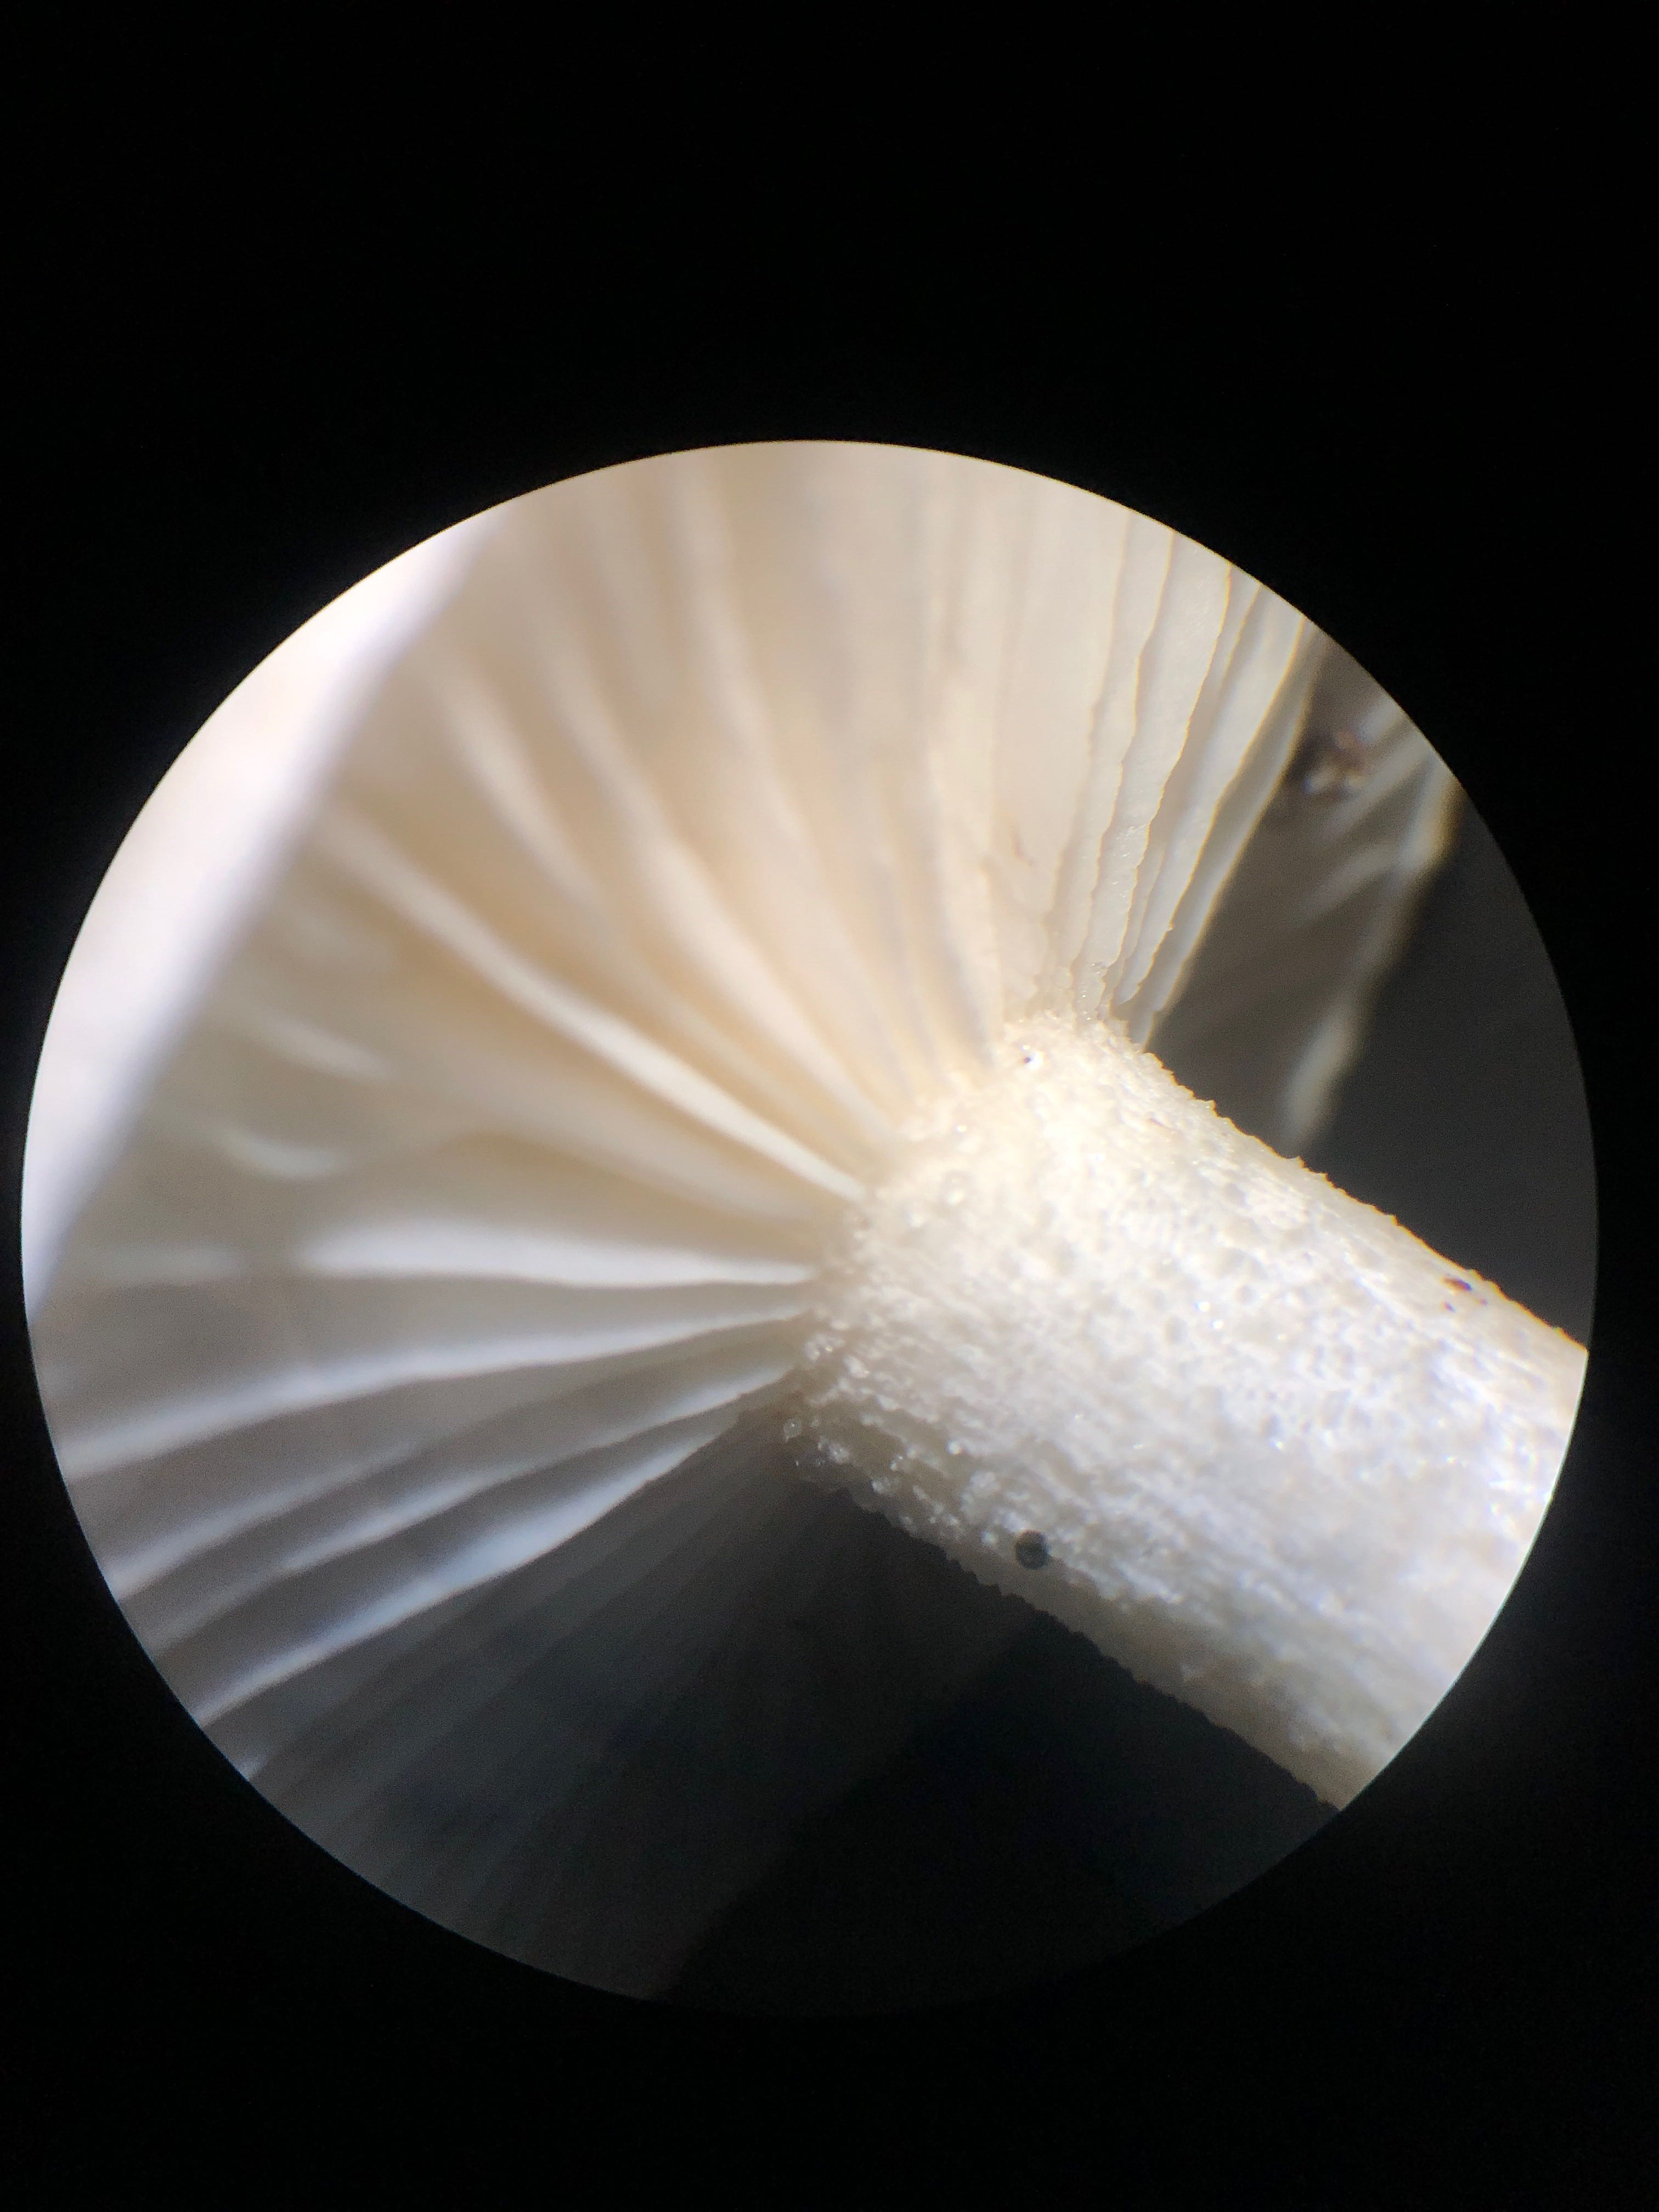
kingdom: Fungi
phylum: Basidiomycota
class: Agaricomycetes
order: Agaricales
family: Hygrophoraceae
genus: Hygrophorus
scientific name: Hygrophorus eburneus
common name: elfenbens-sneglehat
